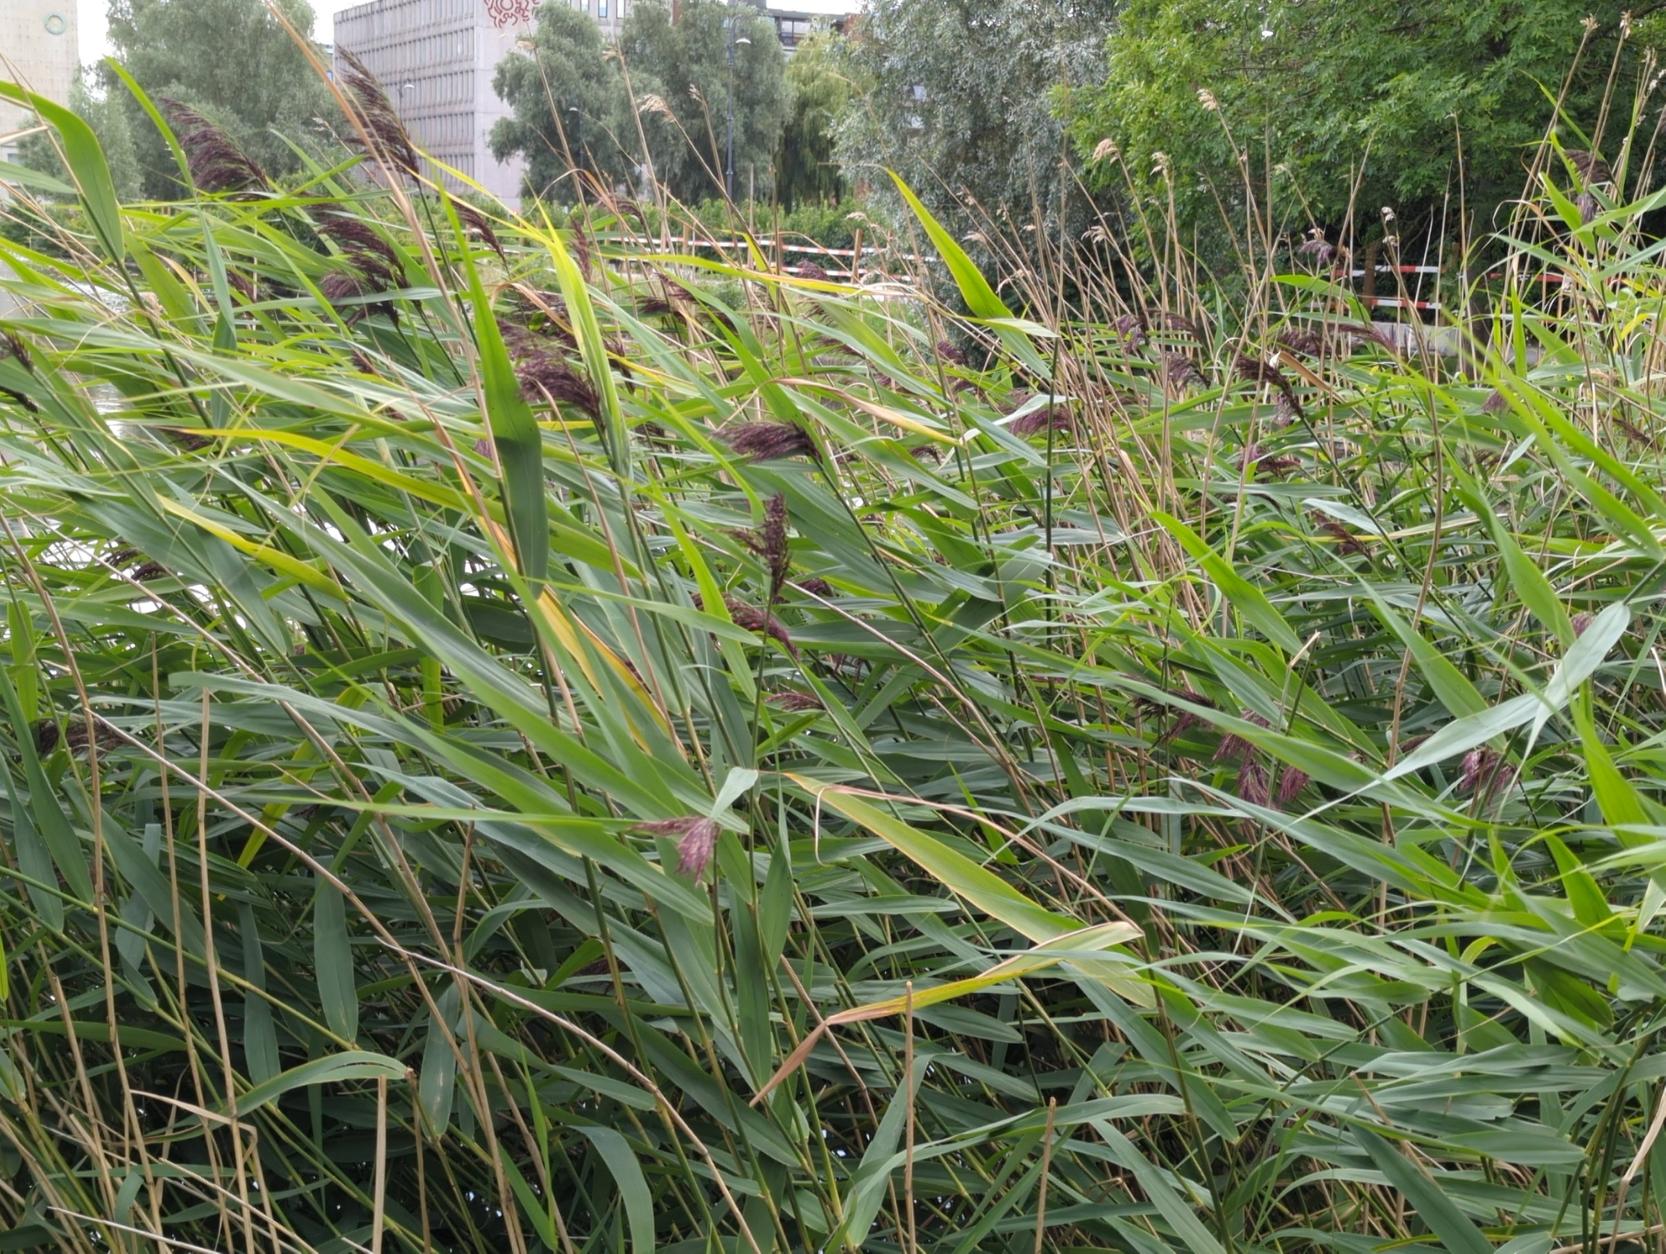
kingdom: Plantae
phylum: Tracheophyta
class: Liliopsida
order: Poales
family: Poaceae
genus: Phragmites
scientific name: Phragmites australis
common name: Tagrør
